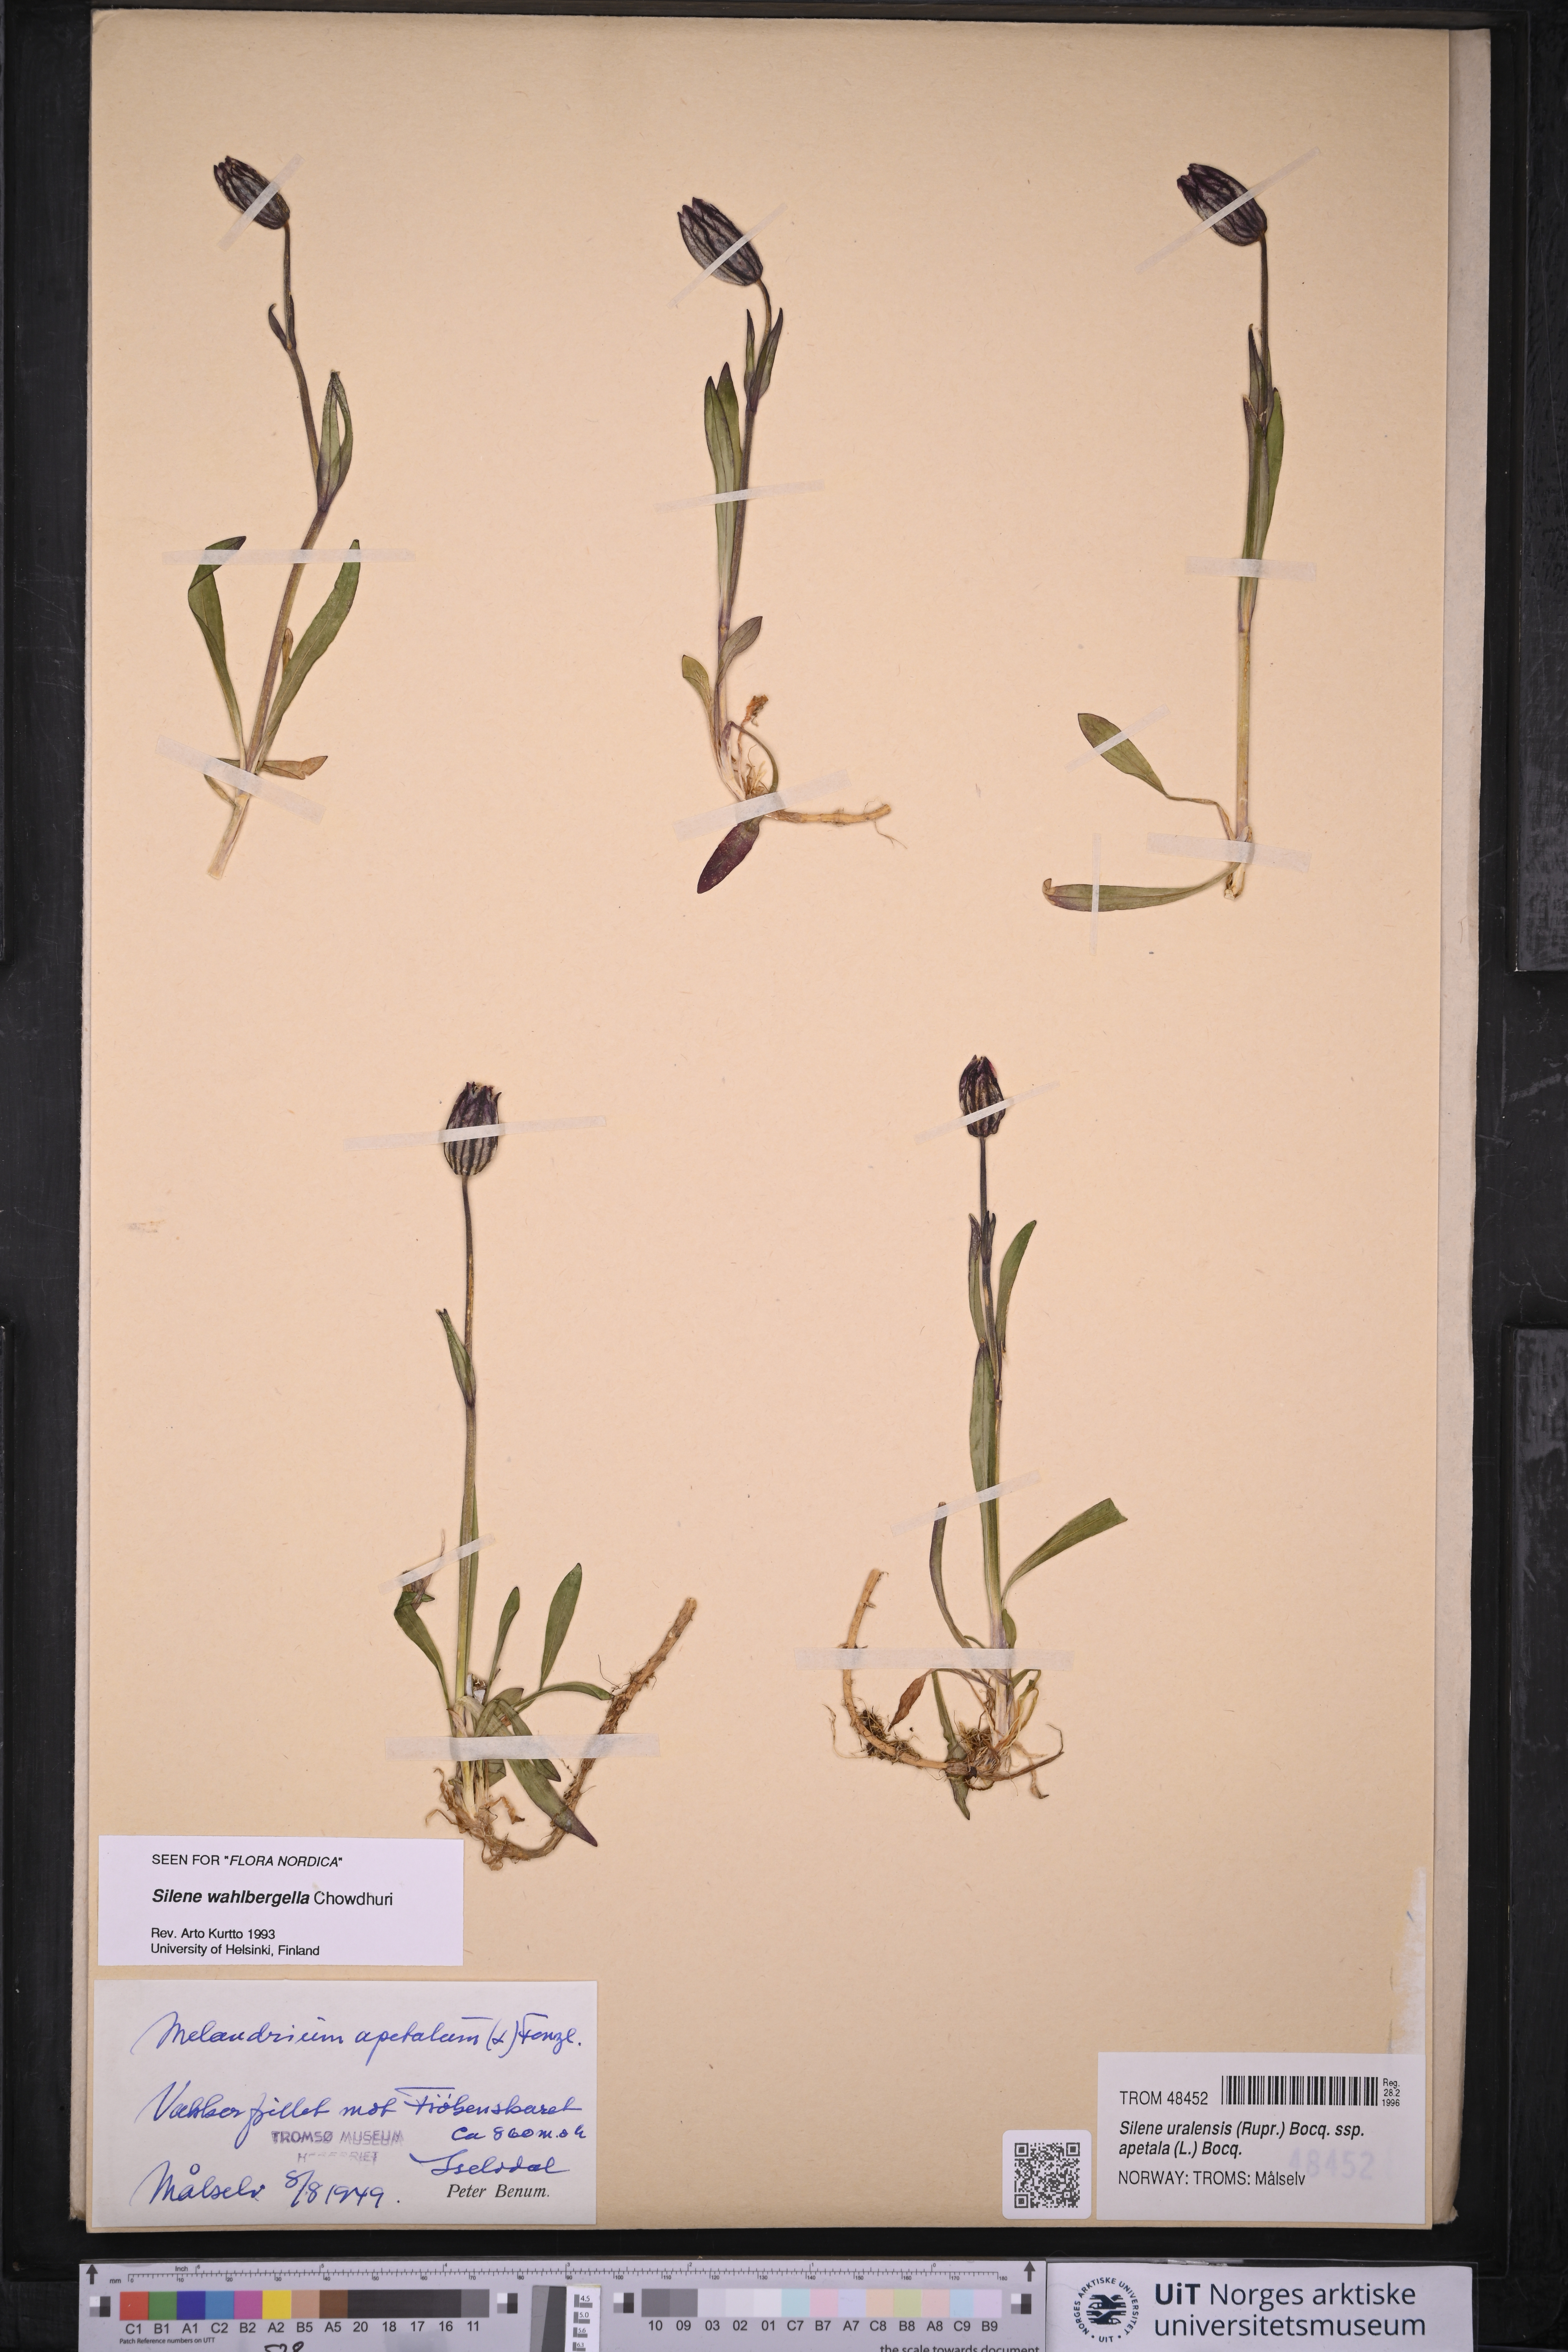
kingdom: Plantae
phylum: Tracheophyta
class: Magnoliopsida
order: Caryophyllales
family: Caryophyllaceae
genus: Silene
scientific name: Silene wahlbergella
